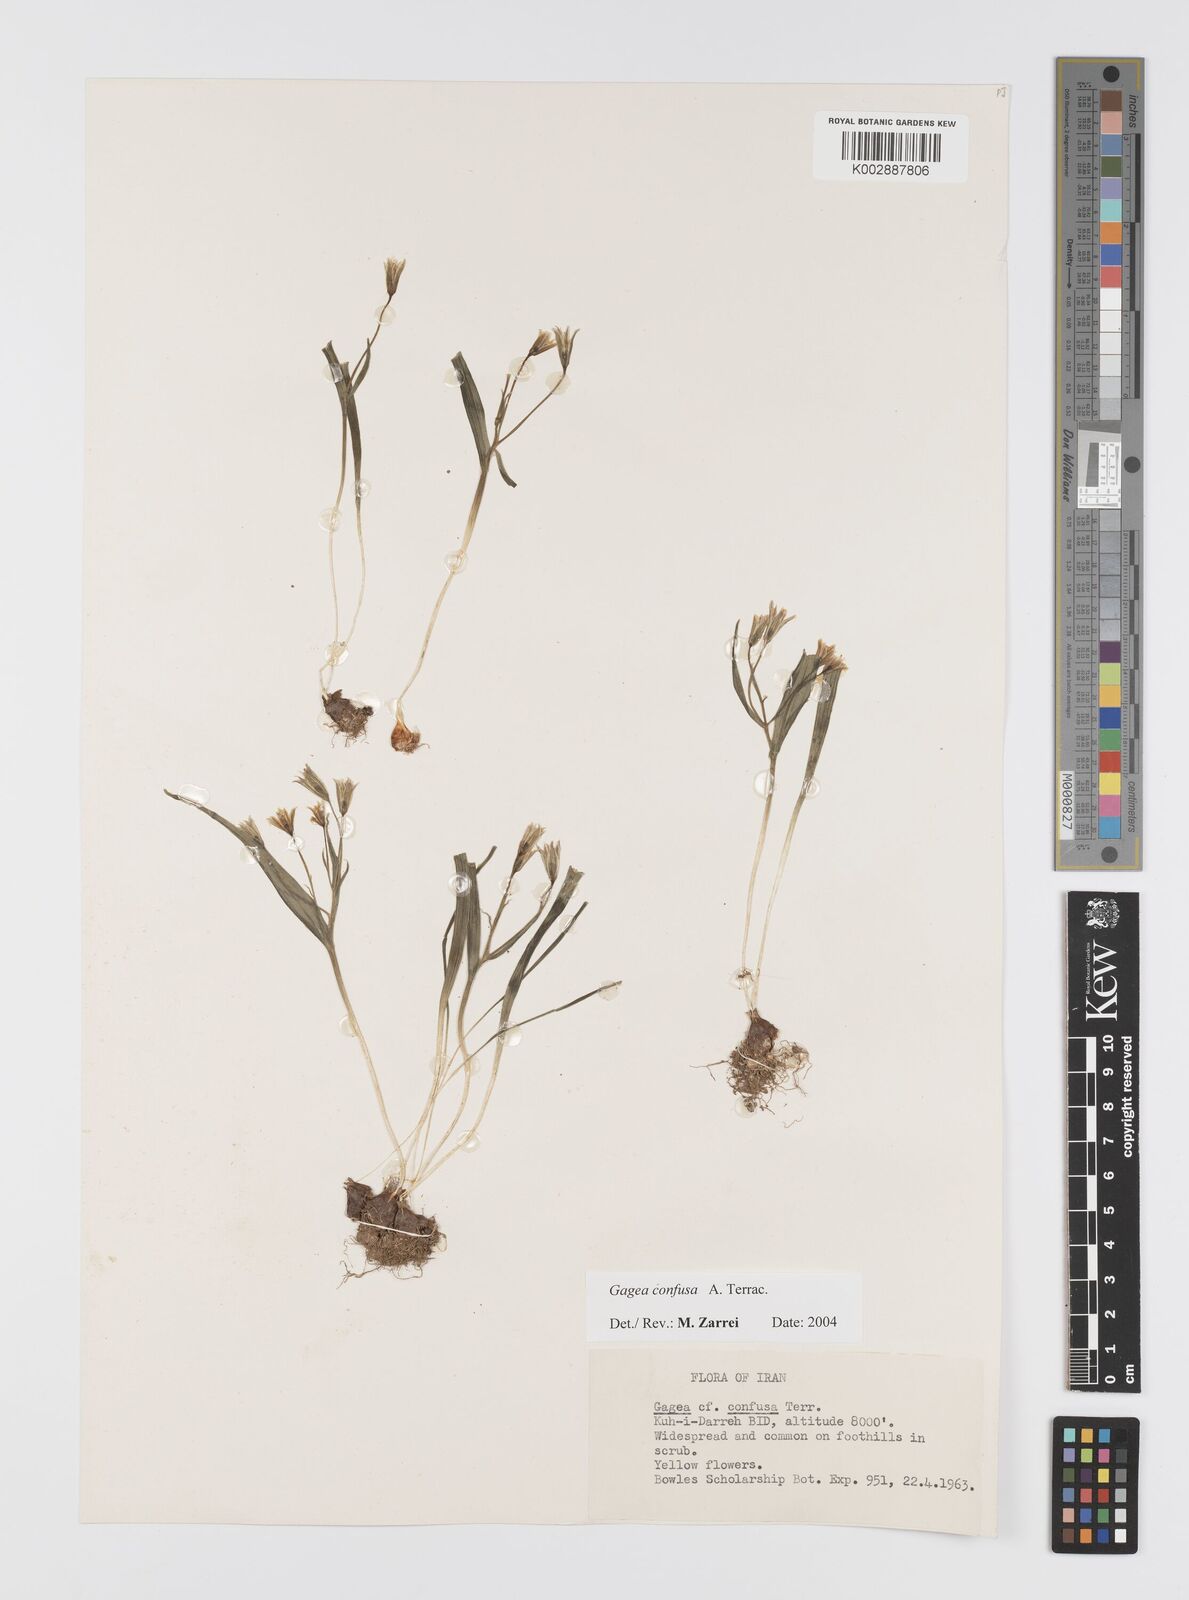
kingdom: Plantae
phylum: Tracheophyta
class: Liliopsida
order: Liliales
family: Liliaceae
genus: Gagea
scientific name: Gagea confusa
